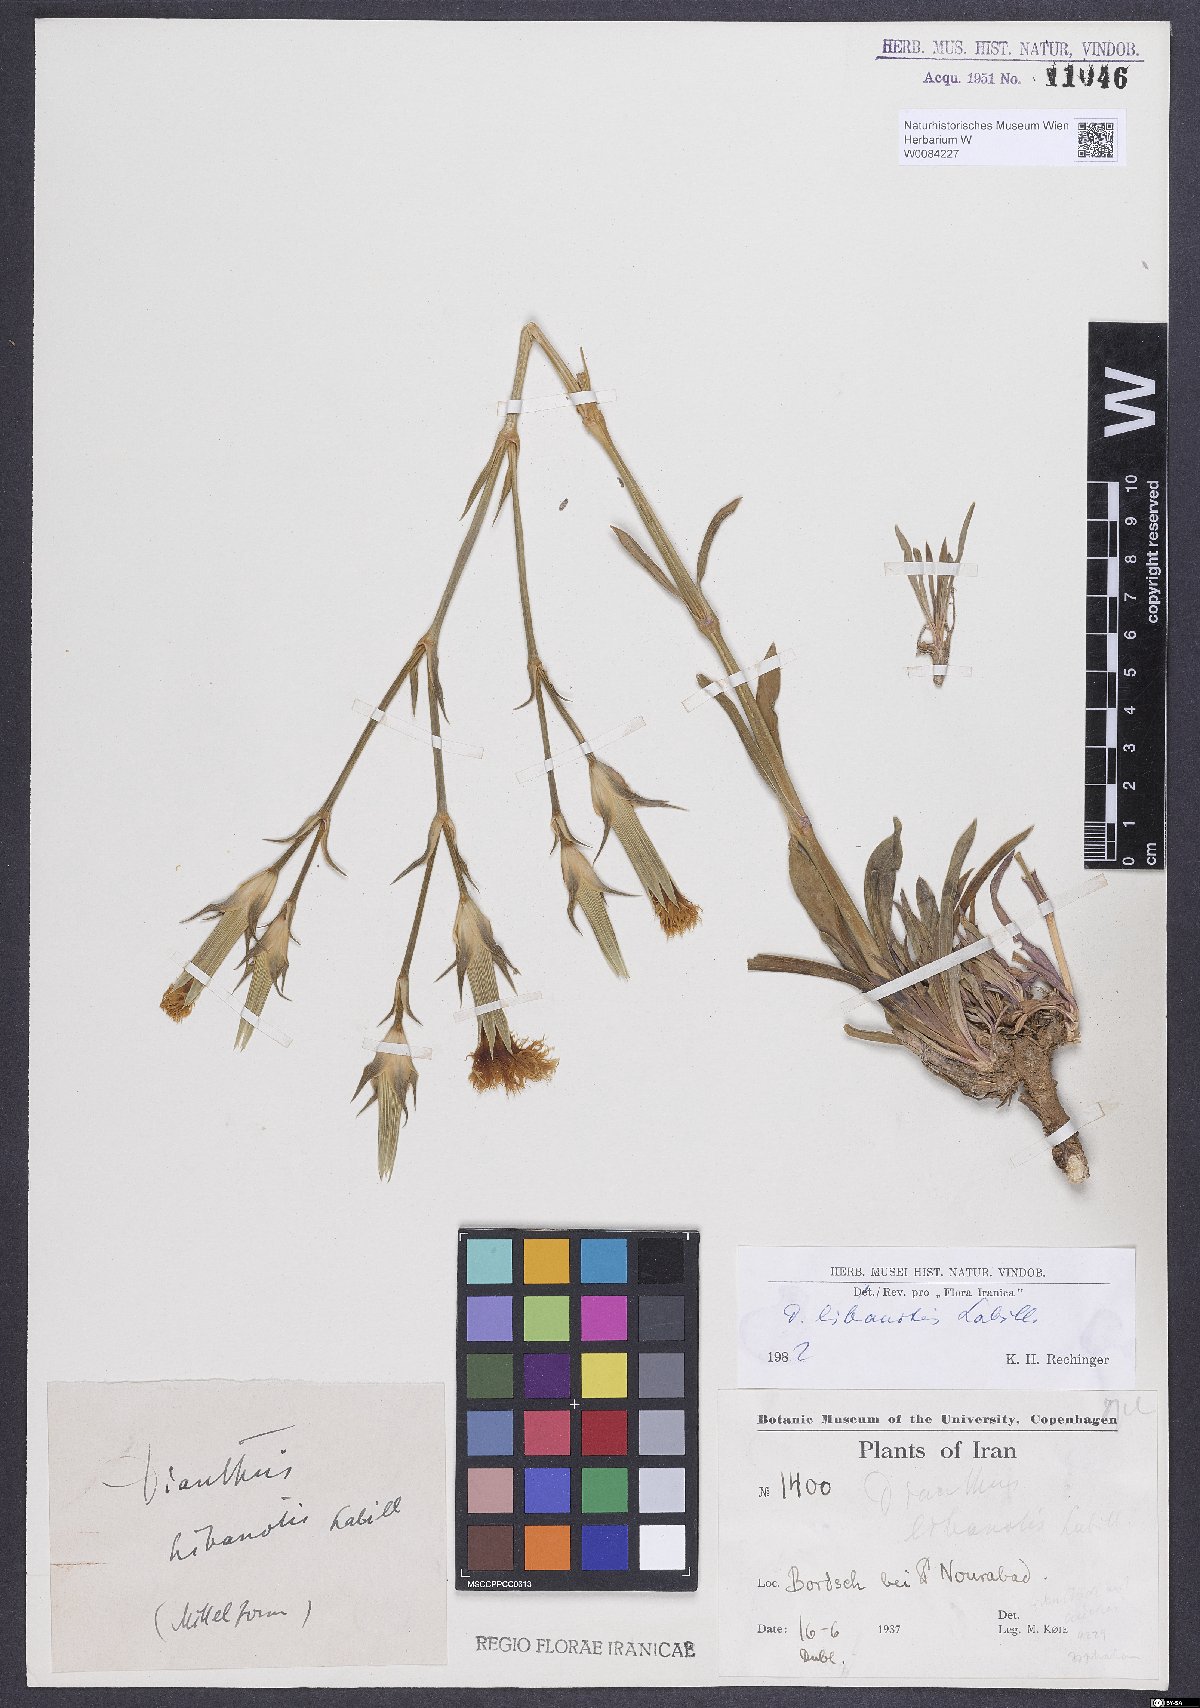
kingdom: Plantae
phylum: Tracheophyta
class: Magnoliopsida
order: Caryophyllales
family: Caryophyllaceae
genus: Dianthus
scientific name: Dianthus libanotis
